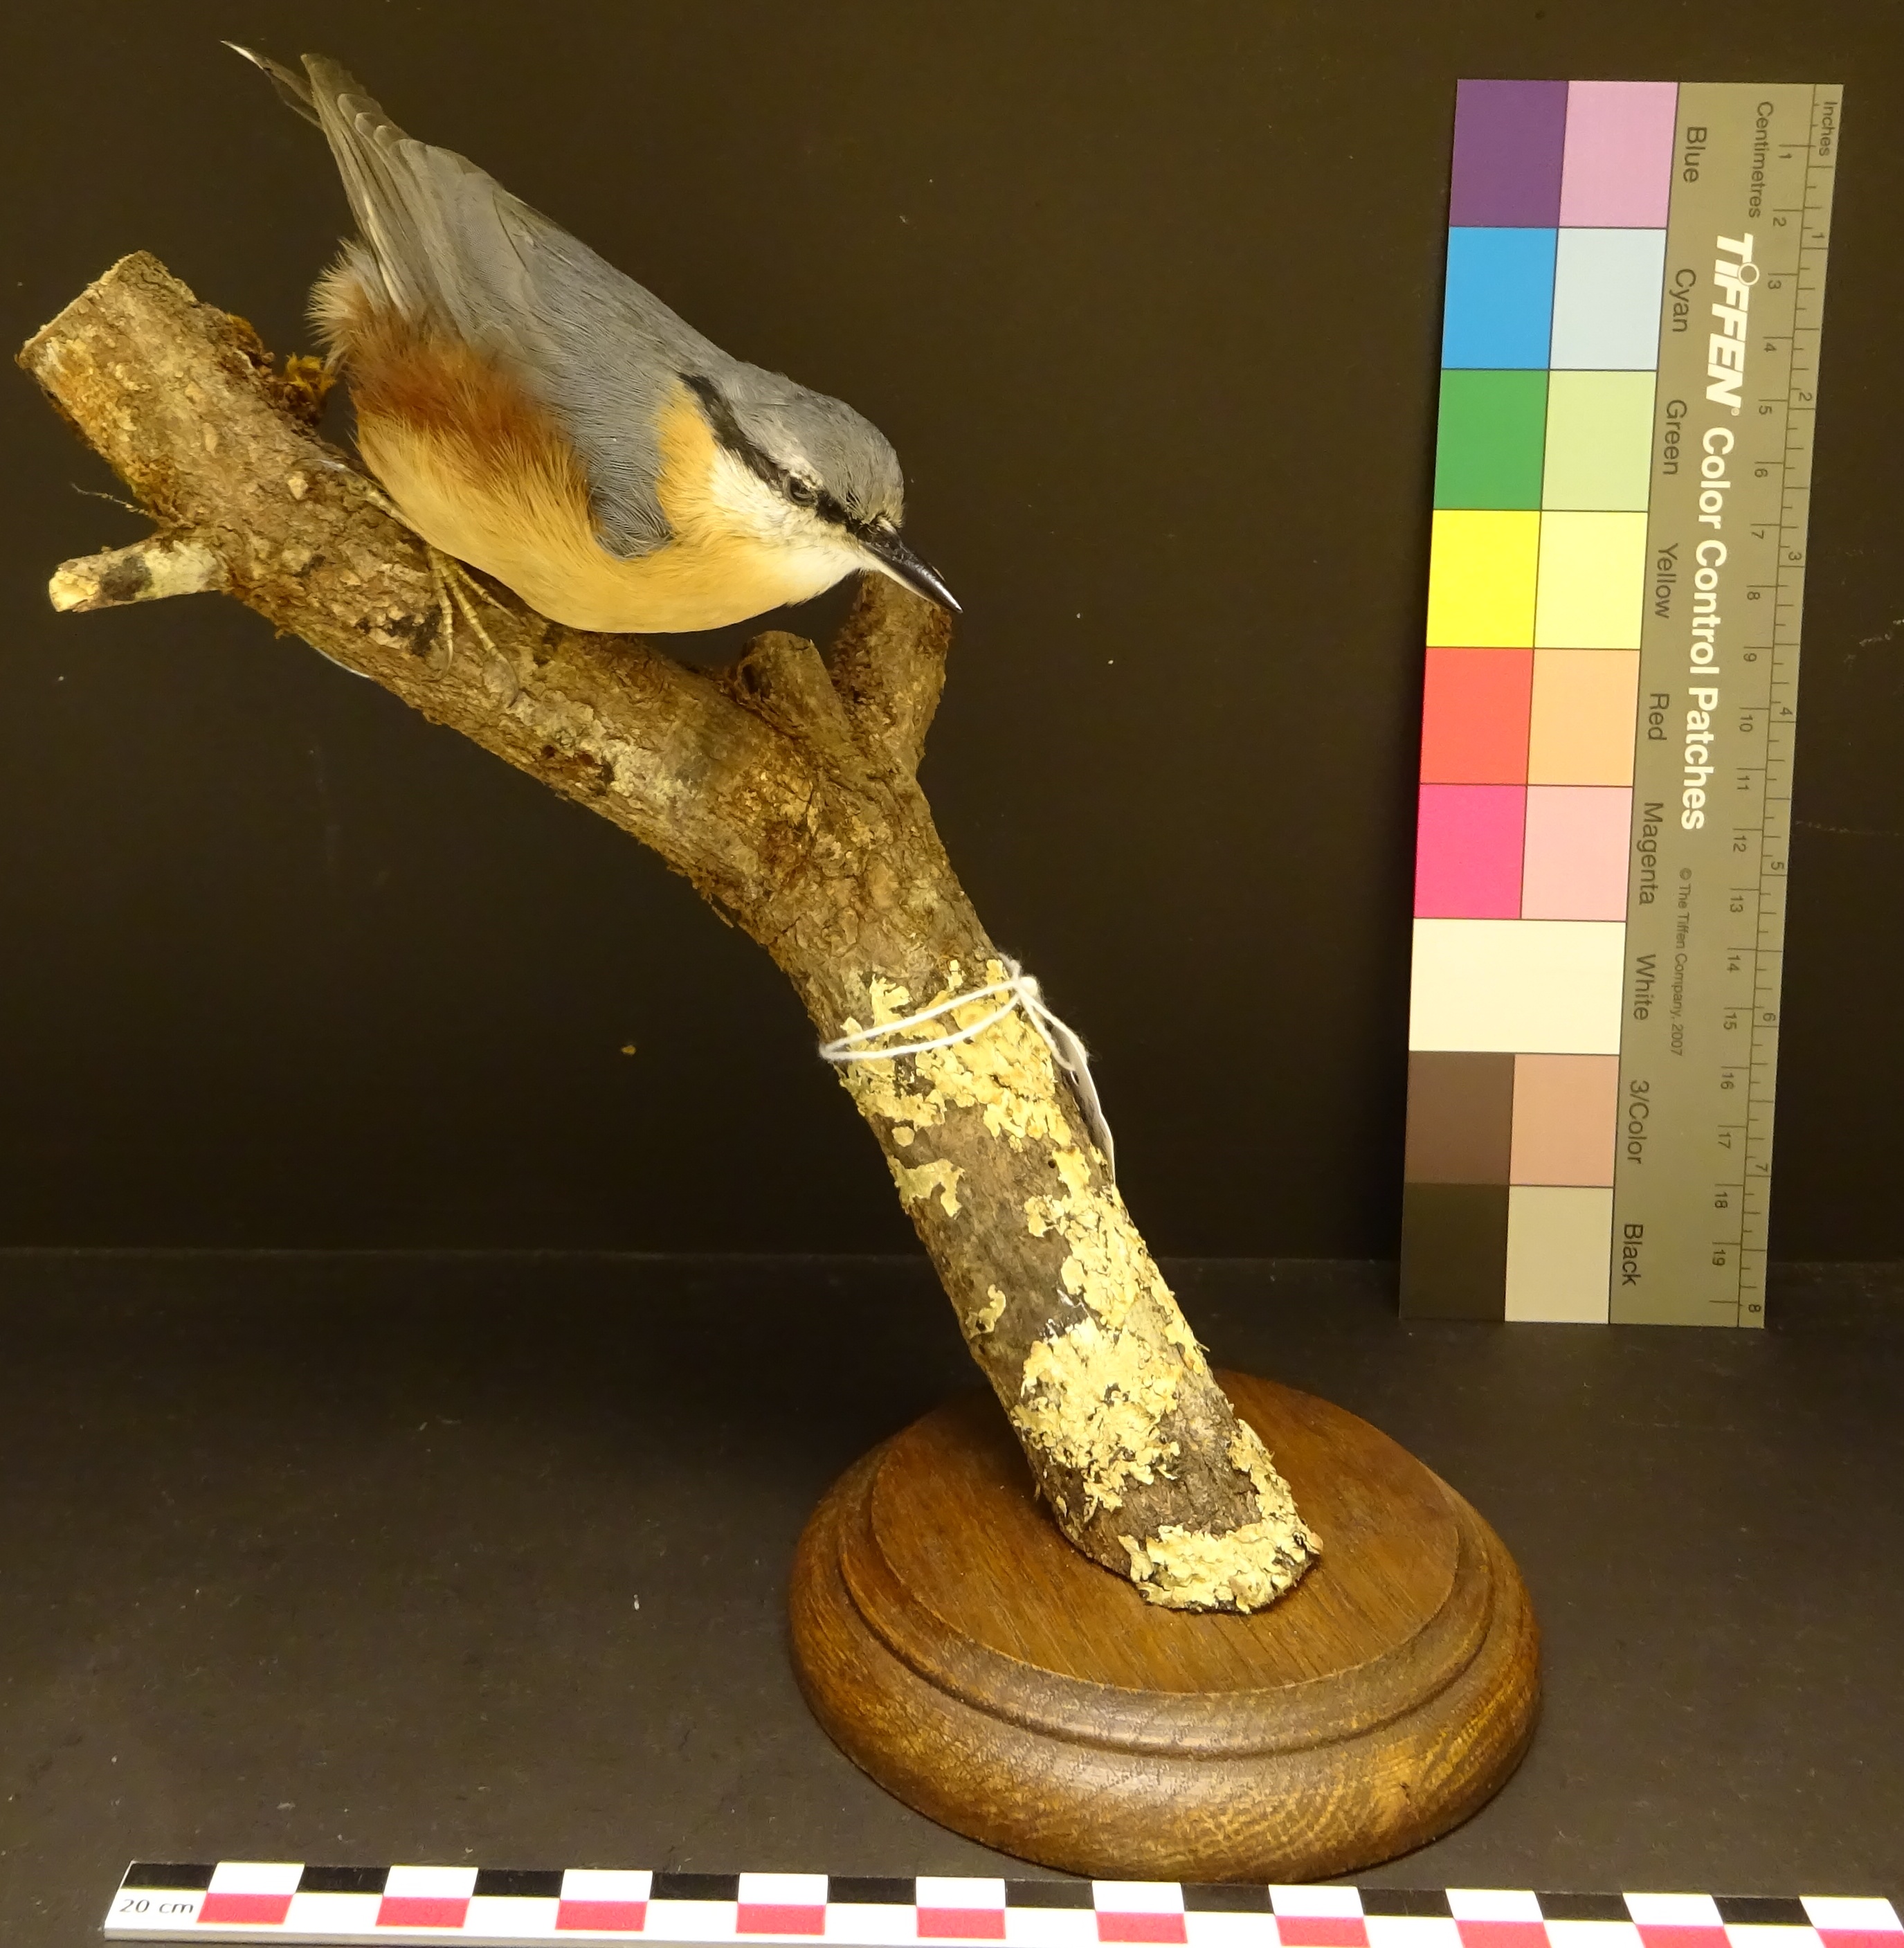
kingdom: Animalia
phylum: Chordata
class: Aves
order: Passeriformes
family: Sittidae
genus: Sitta
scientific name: Sitta europaea
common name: Eurasian nuthatch
